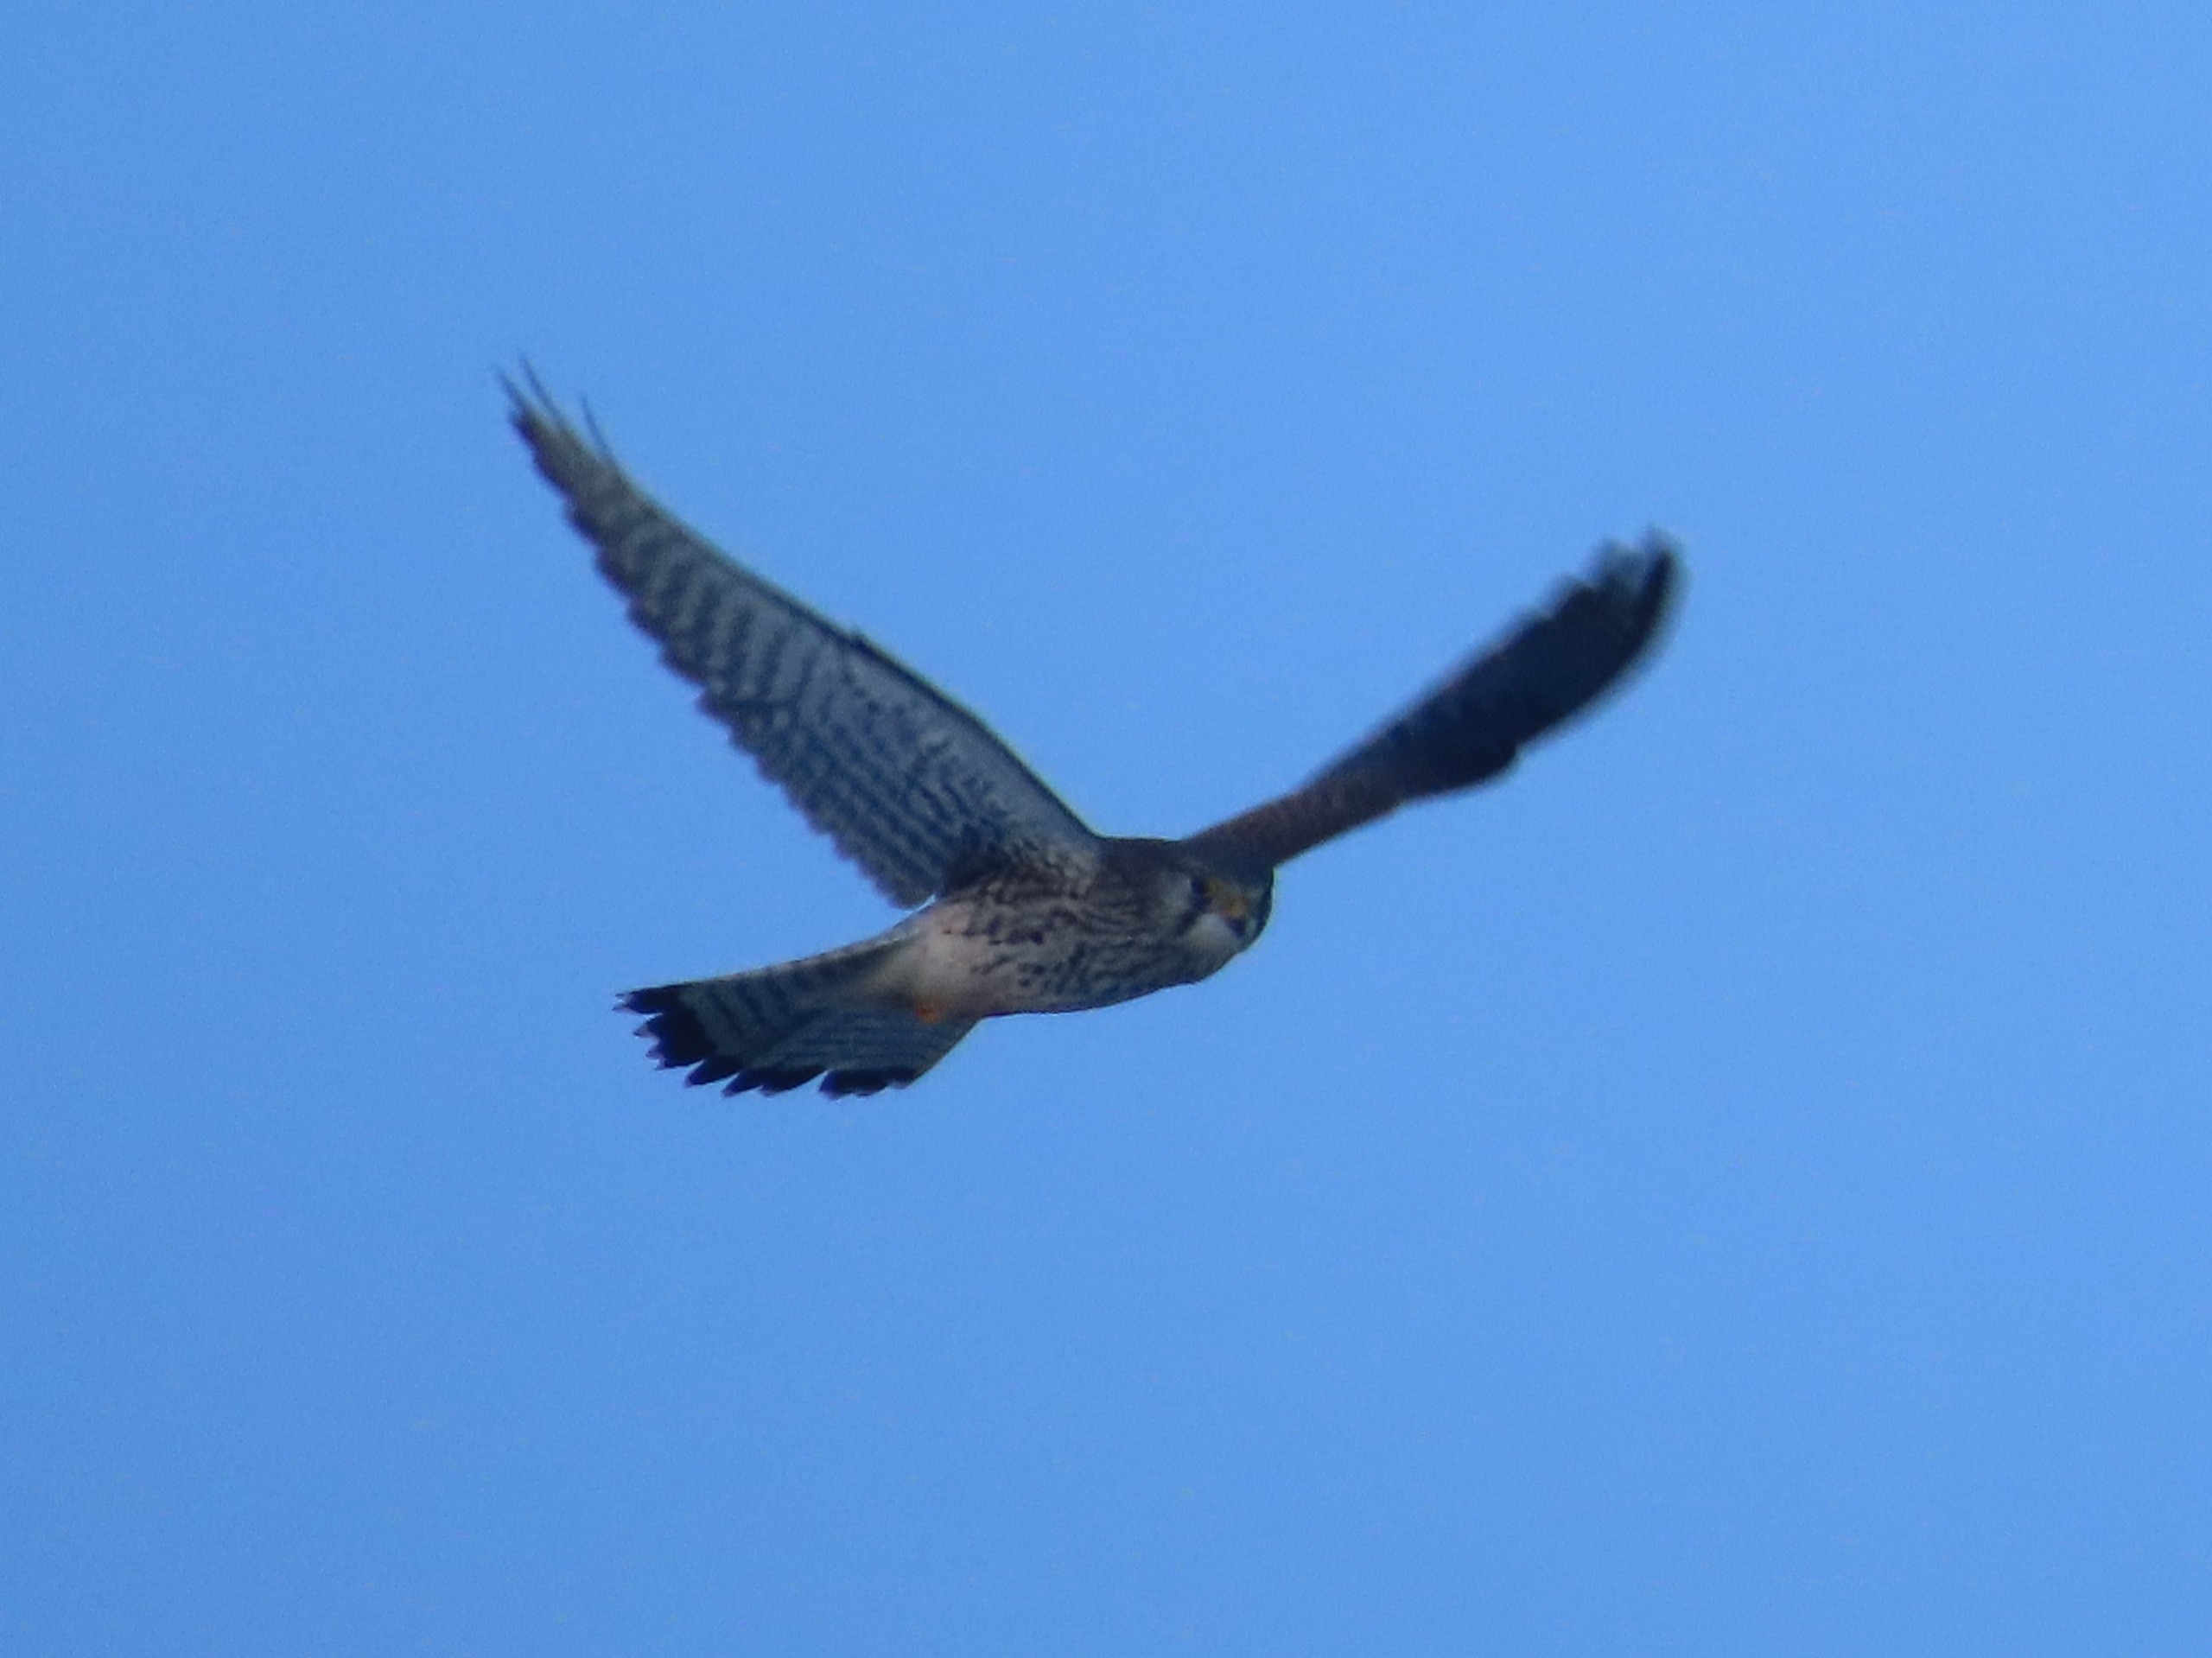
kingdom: Animalia
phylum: Chordata
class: Aves
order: Falconiformes
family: Falconidae
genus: Falco
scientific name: Falco tinnunculus
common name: Tårnfalk
